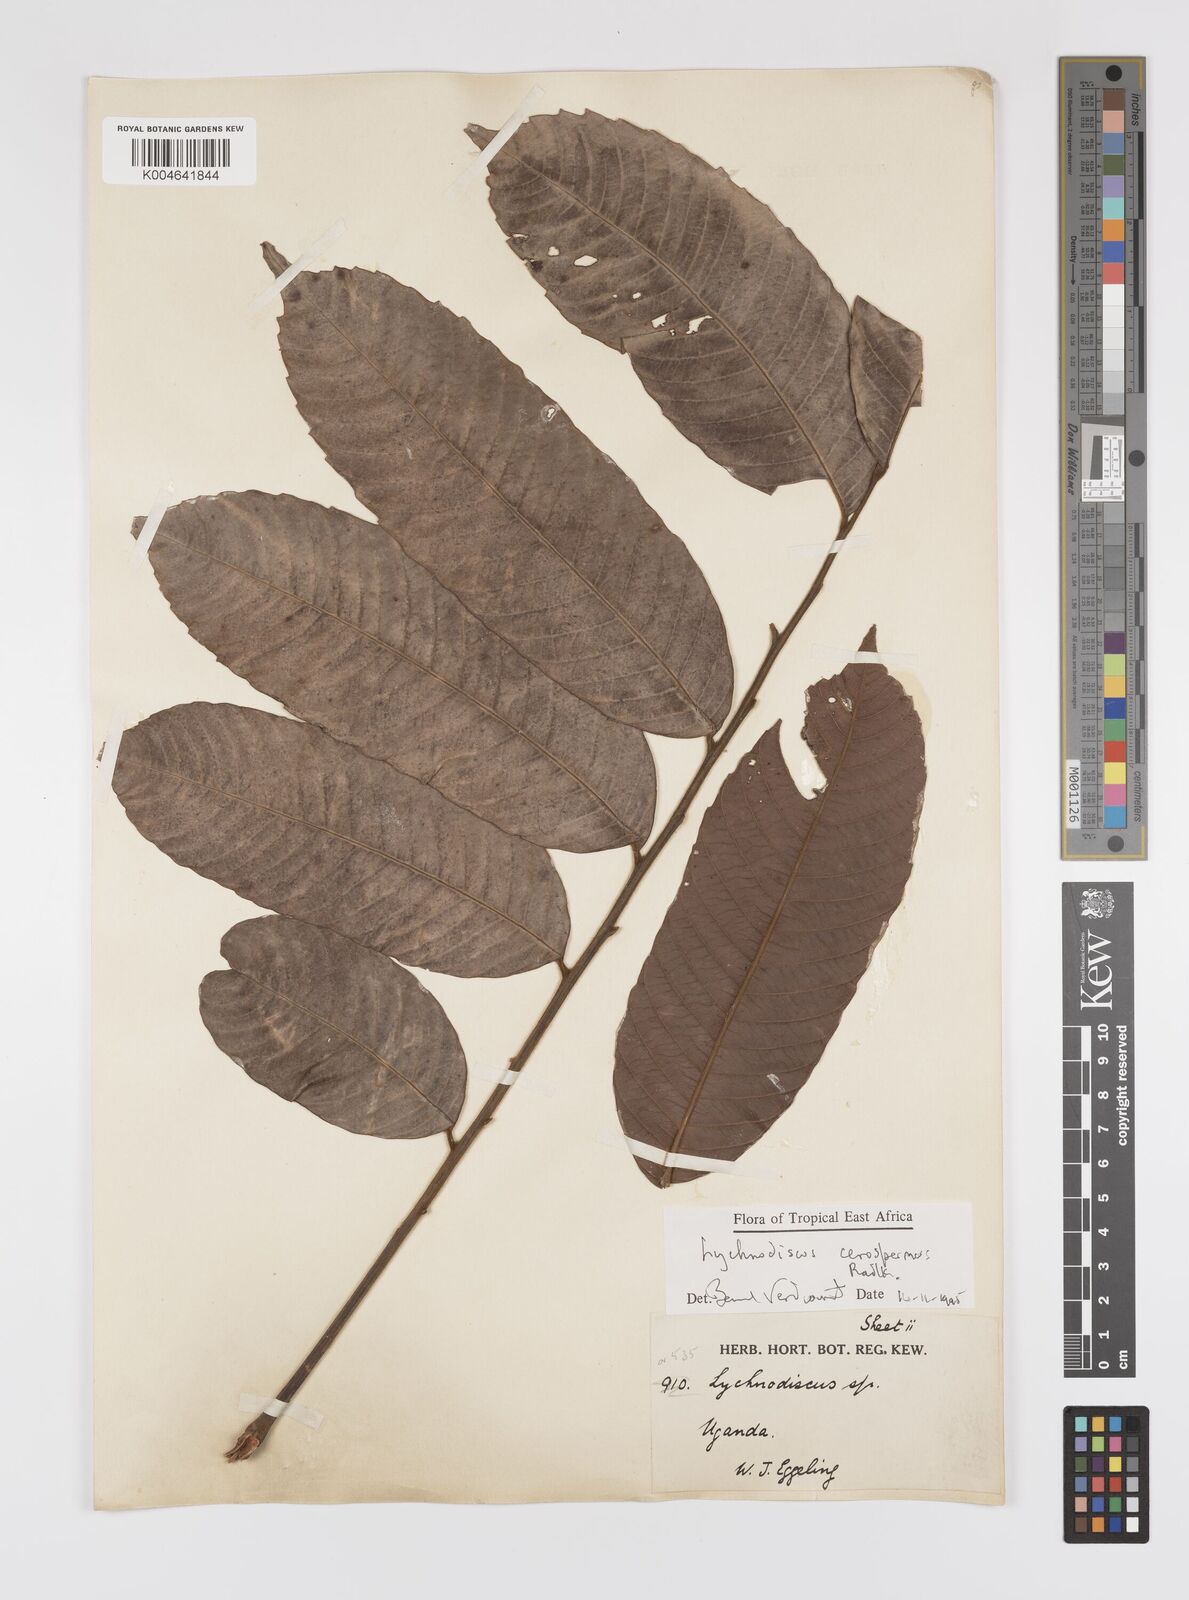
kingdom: Plantae
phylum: Tracheophyta
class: Magnoliopsida
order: Sapindales
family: Sapindaceae
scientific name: Sapindaceae
